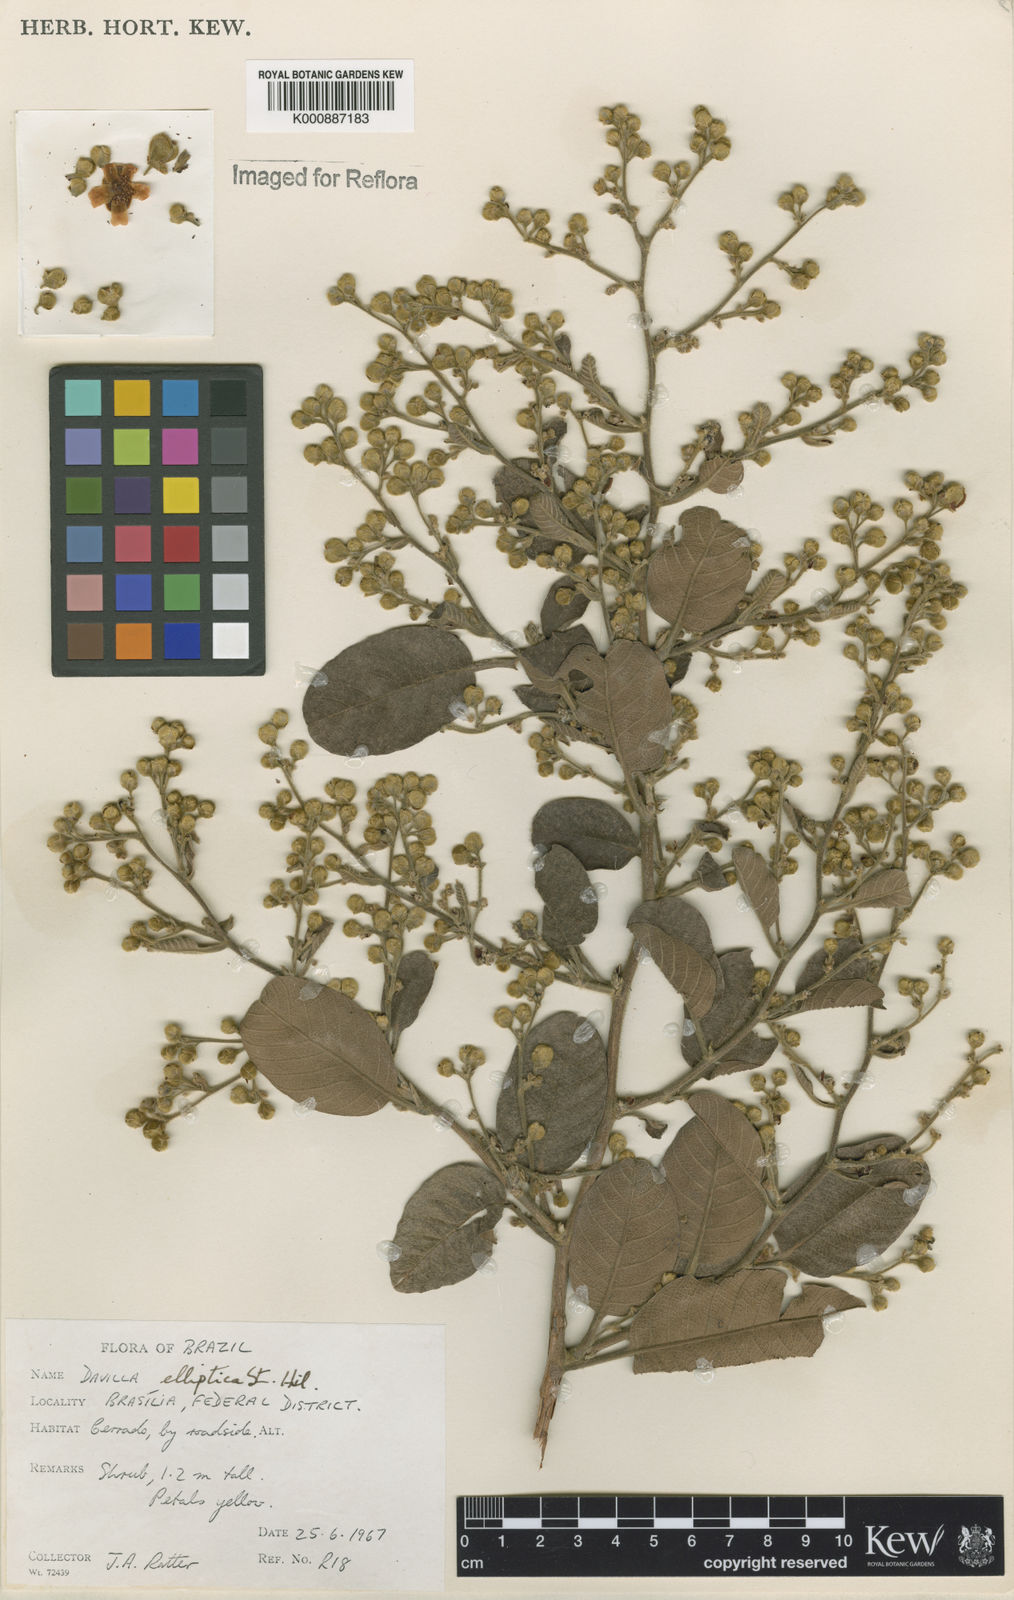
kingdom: Plantae
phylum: Tracheophyta
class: Magnoliopsida
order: Dilleniales
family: Dilleniaceae
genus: Davilla
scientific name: Davilla elliptica
